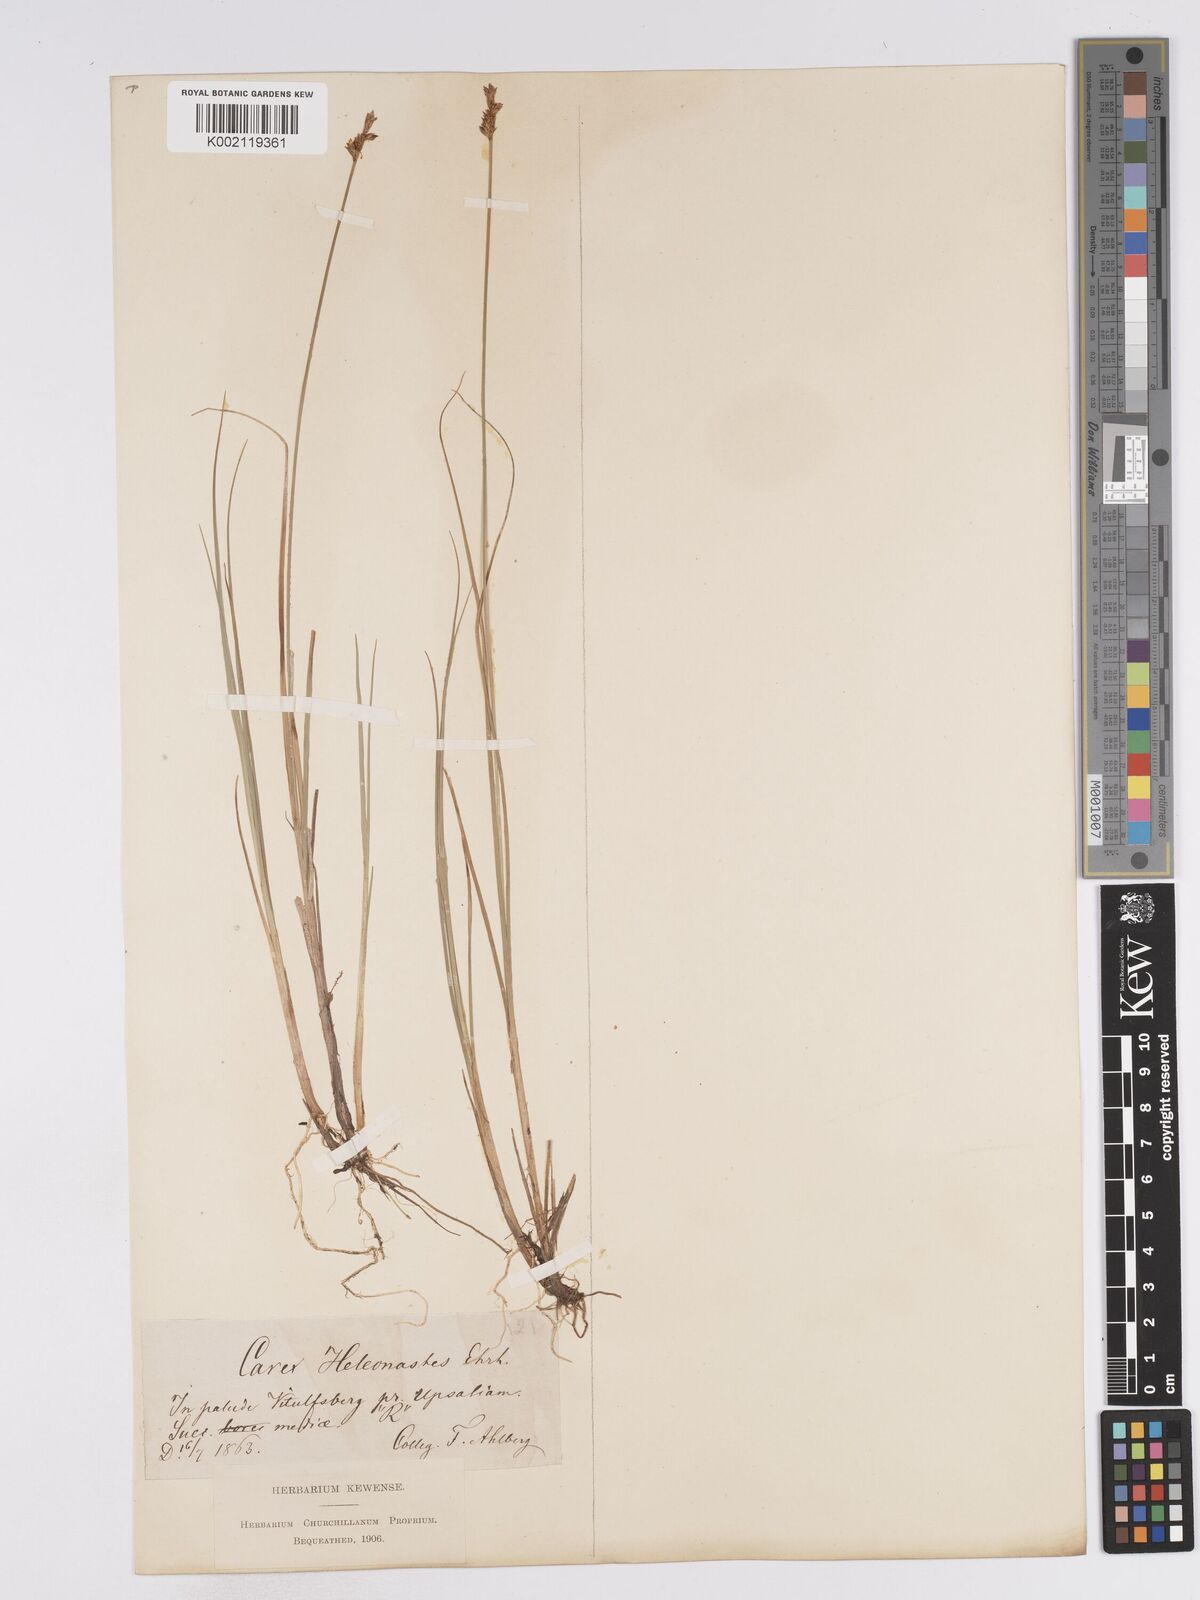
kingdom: Plantae
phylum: Tracheophyta
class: Liliopsida
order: Poales
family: Cyperaceae
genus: Carex
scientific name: Carex heleonastes
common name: Hudson bay sedge
